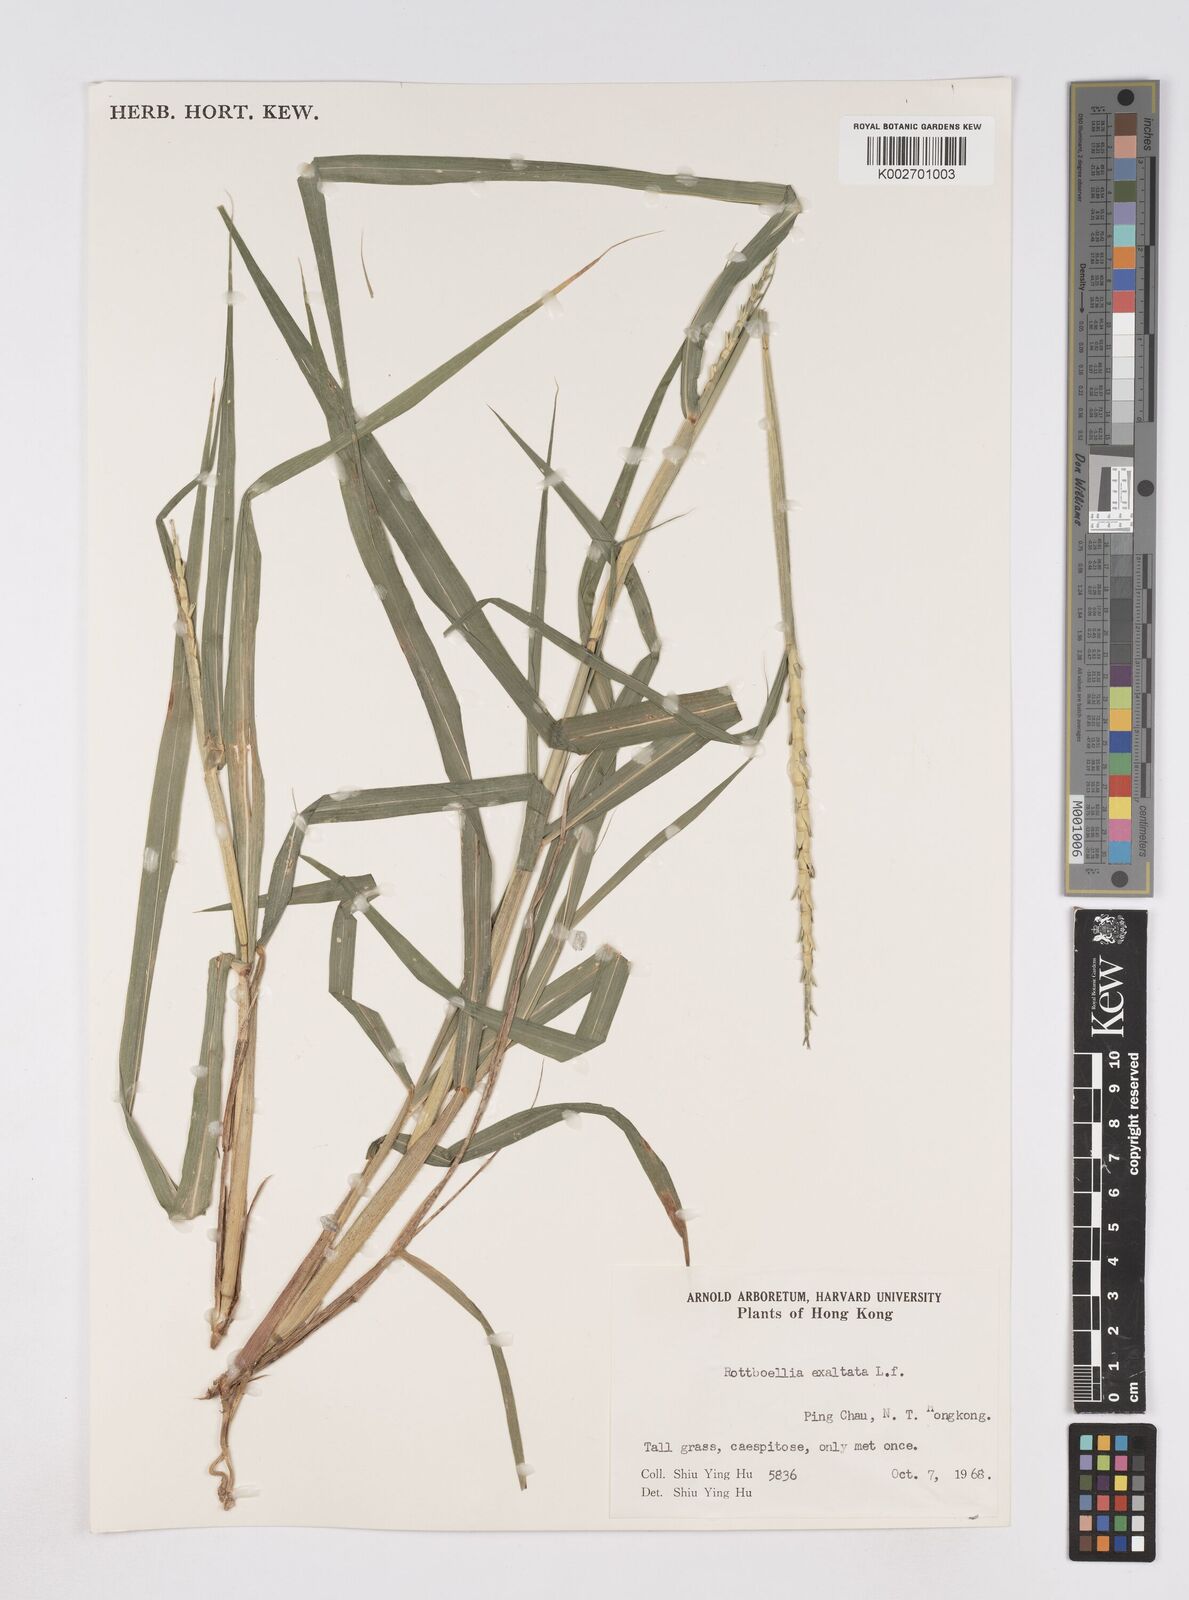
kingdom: Plantae
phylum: Tracheophyta
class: Liliopsida
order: Poales
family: Poaceae
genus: Rottboellia
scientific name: Rottboellia cochinchinensis
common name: Itchgrass
